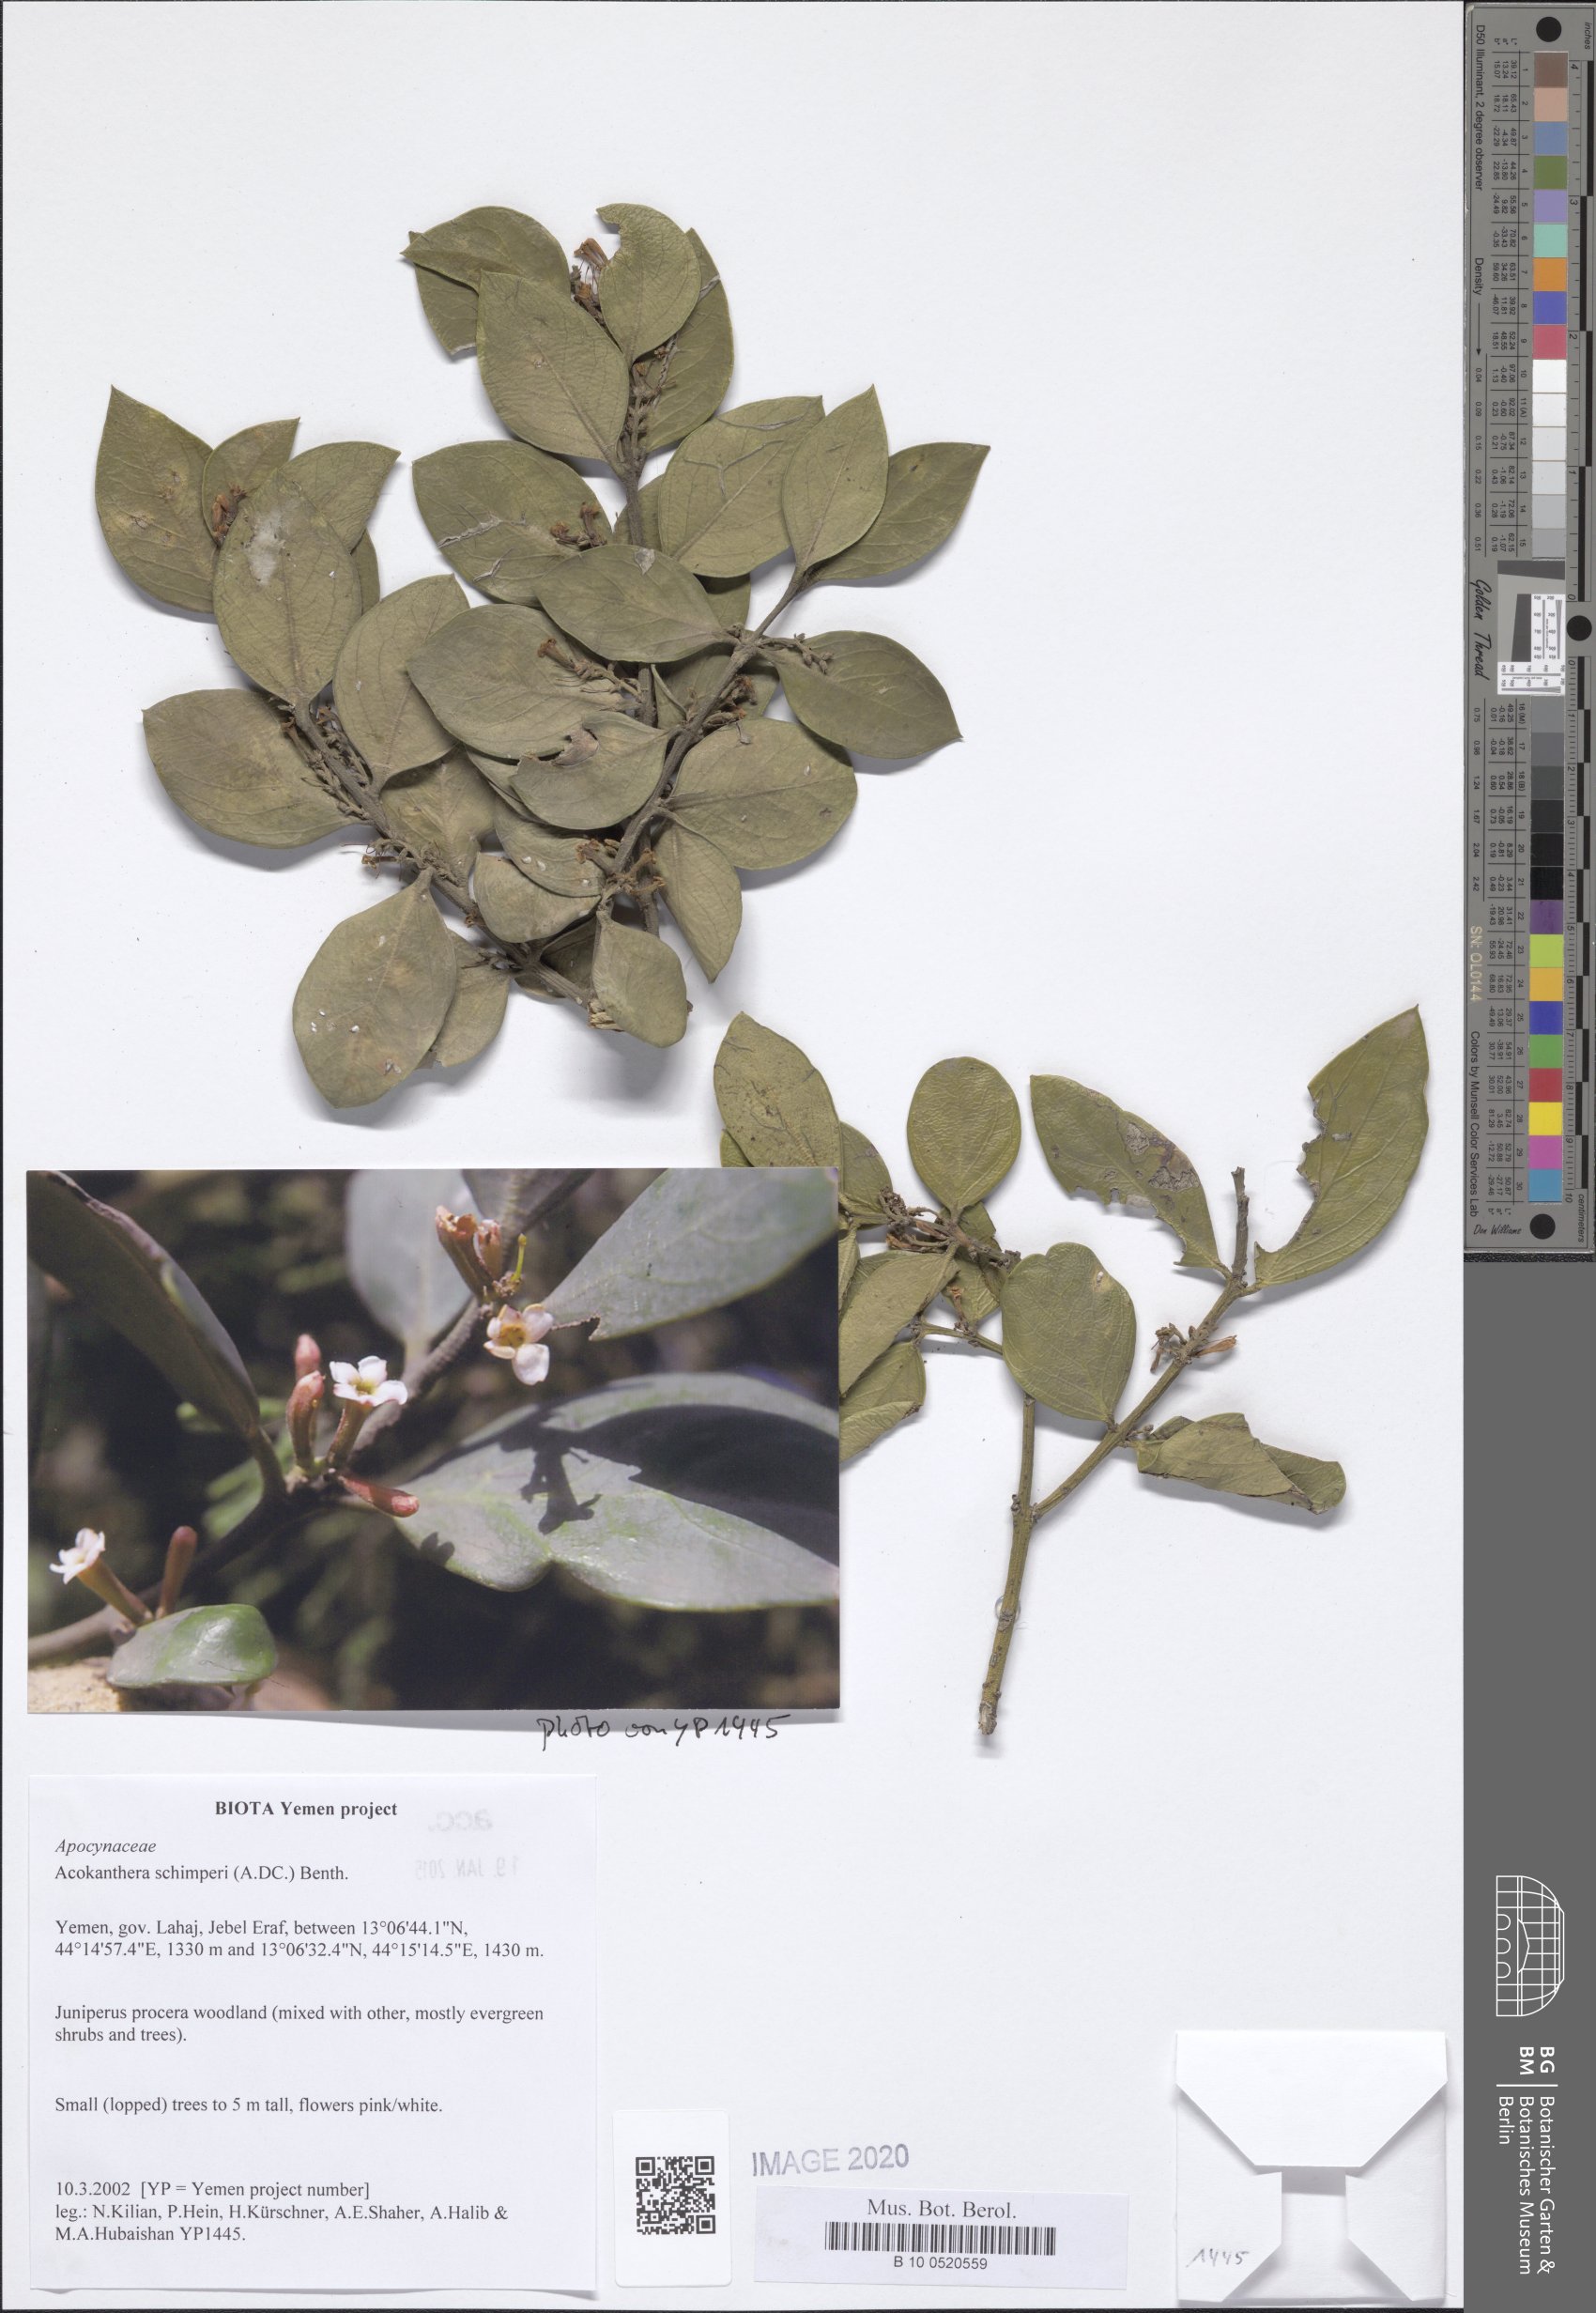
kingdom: Plantae
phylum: Tracheophyta
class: Magnoliopsida
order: Gentianales
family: Apocynaceae
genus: Acokanthera
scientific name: Acokanthera schimperi
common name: Arrow-poison-tree
